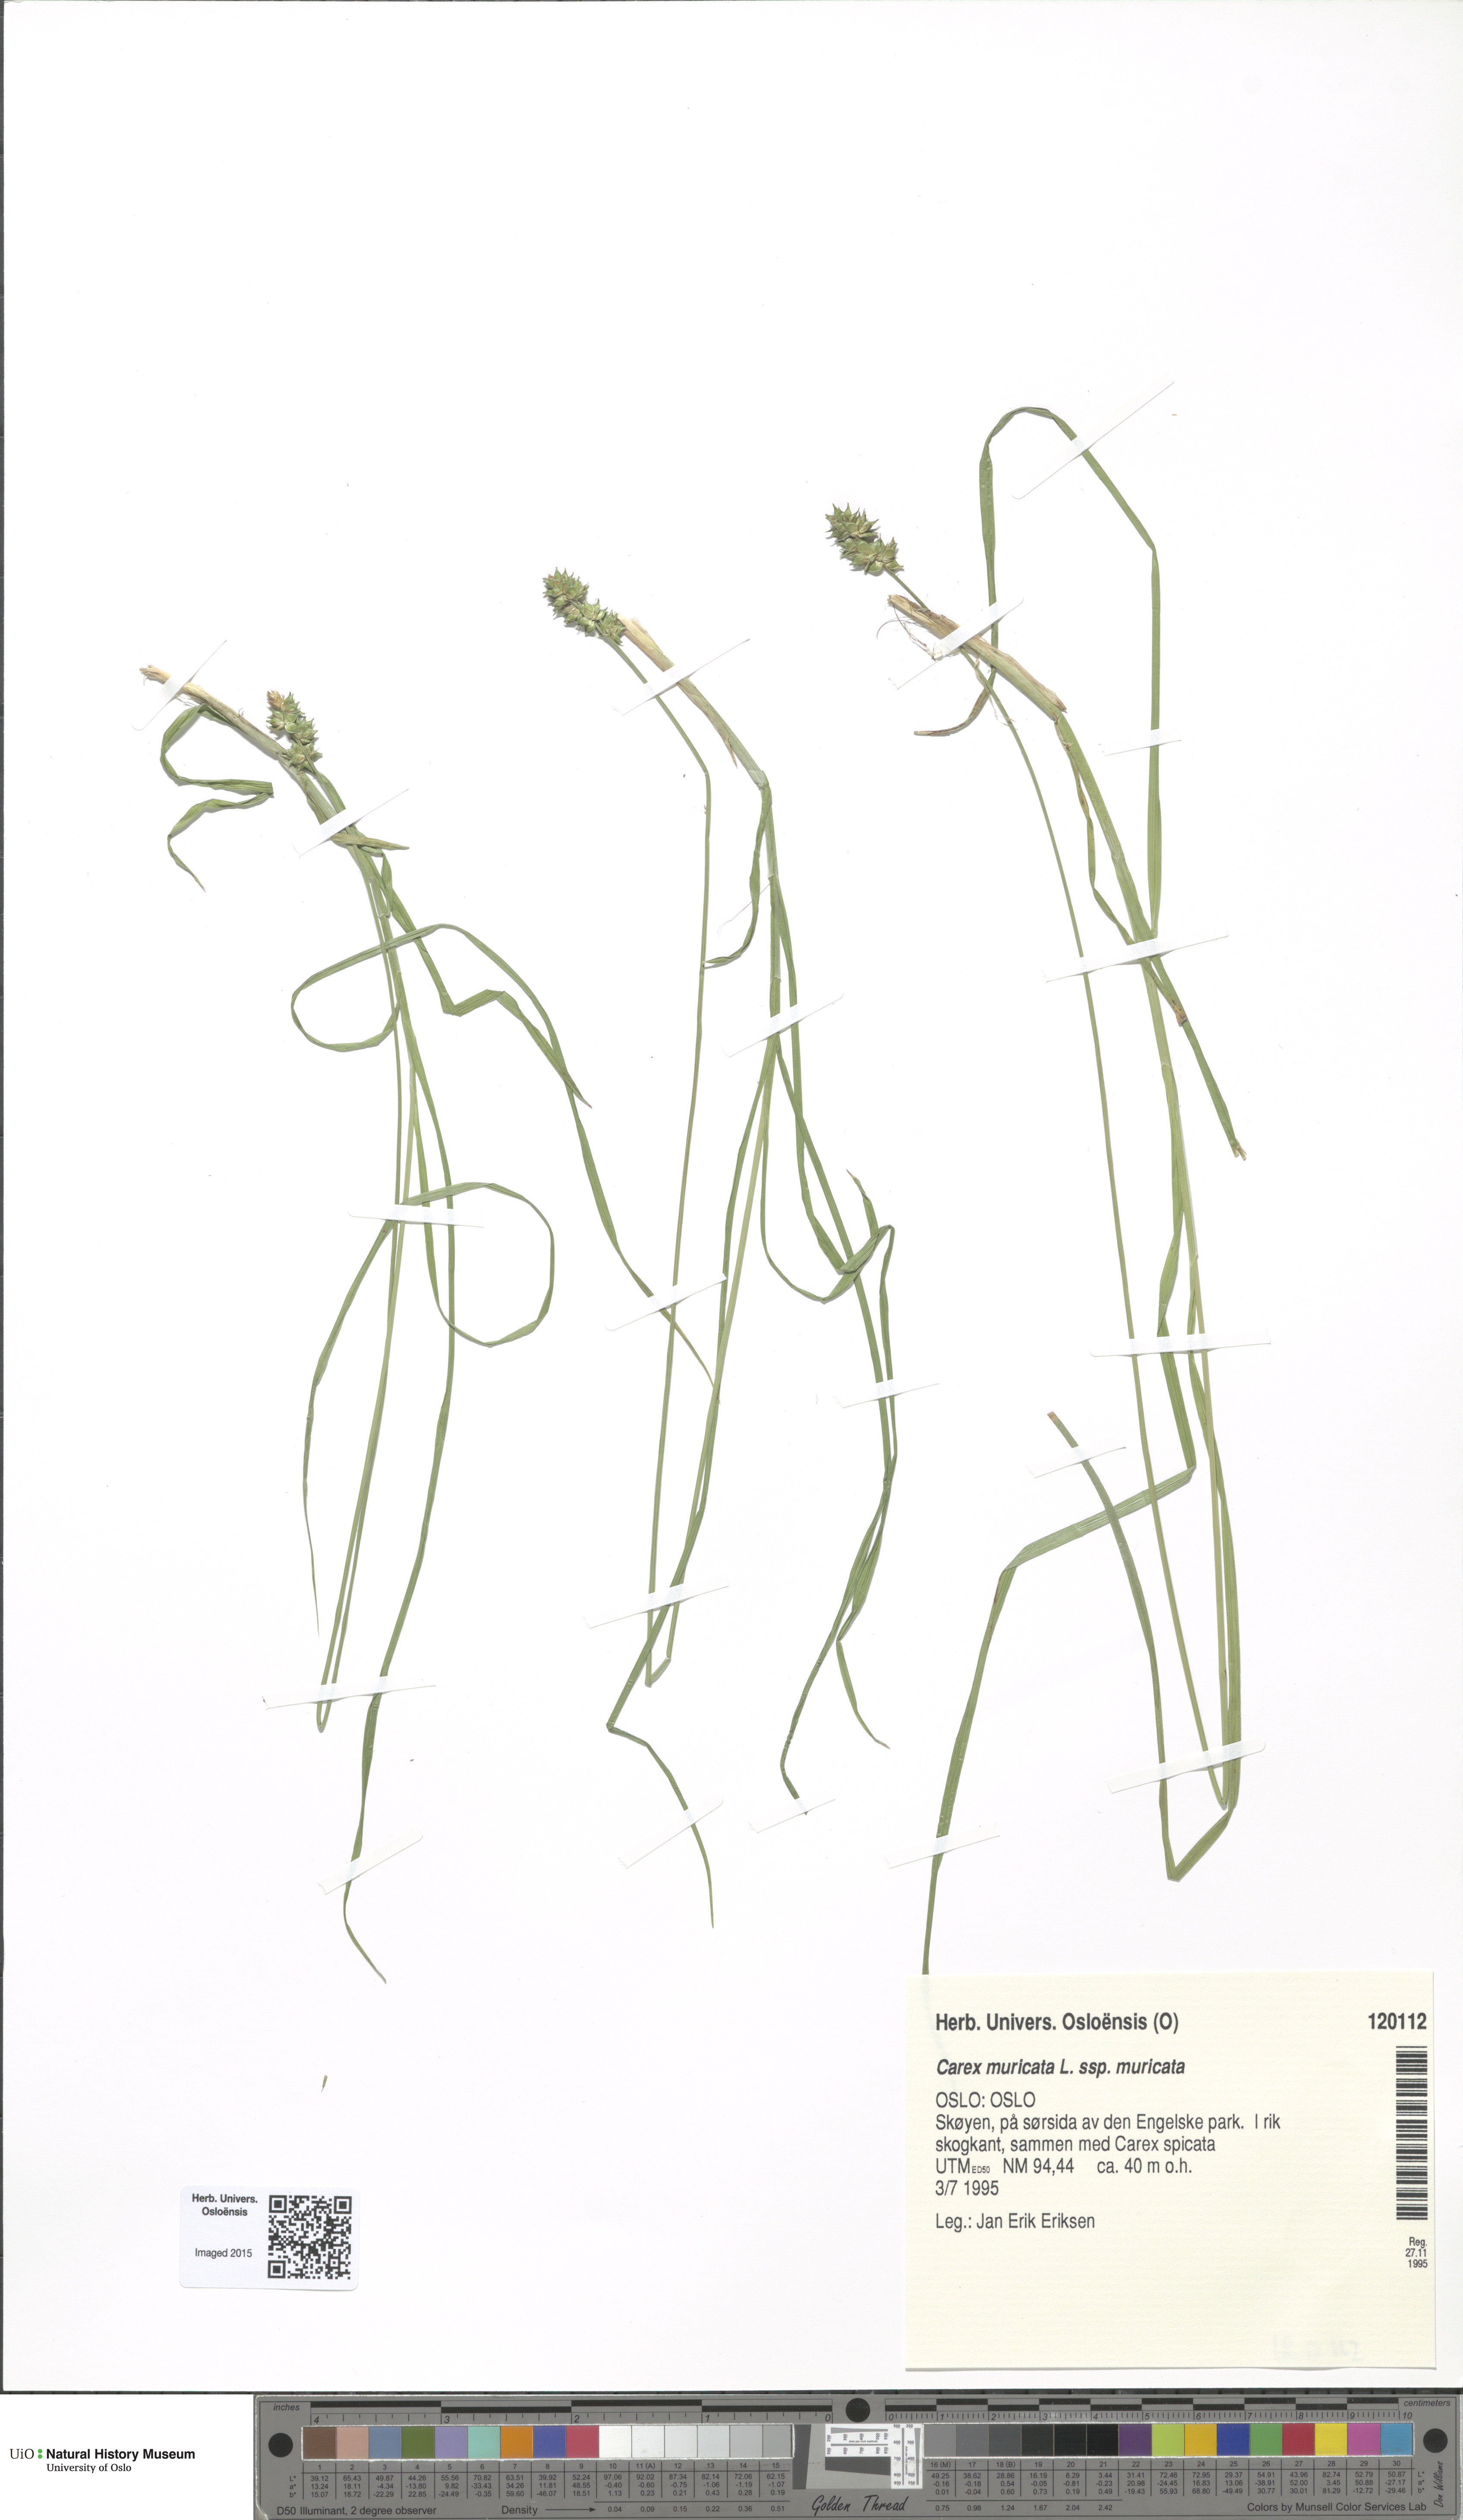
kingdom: Plantae
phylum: Tracheophyta
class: Liliopsida
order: Poales
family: Cyperaceae
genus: Carex
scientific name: Carex muricata
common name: Rough sedge
